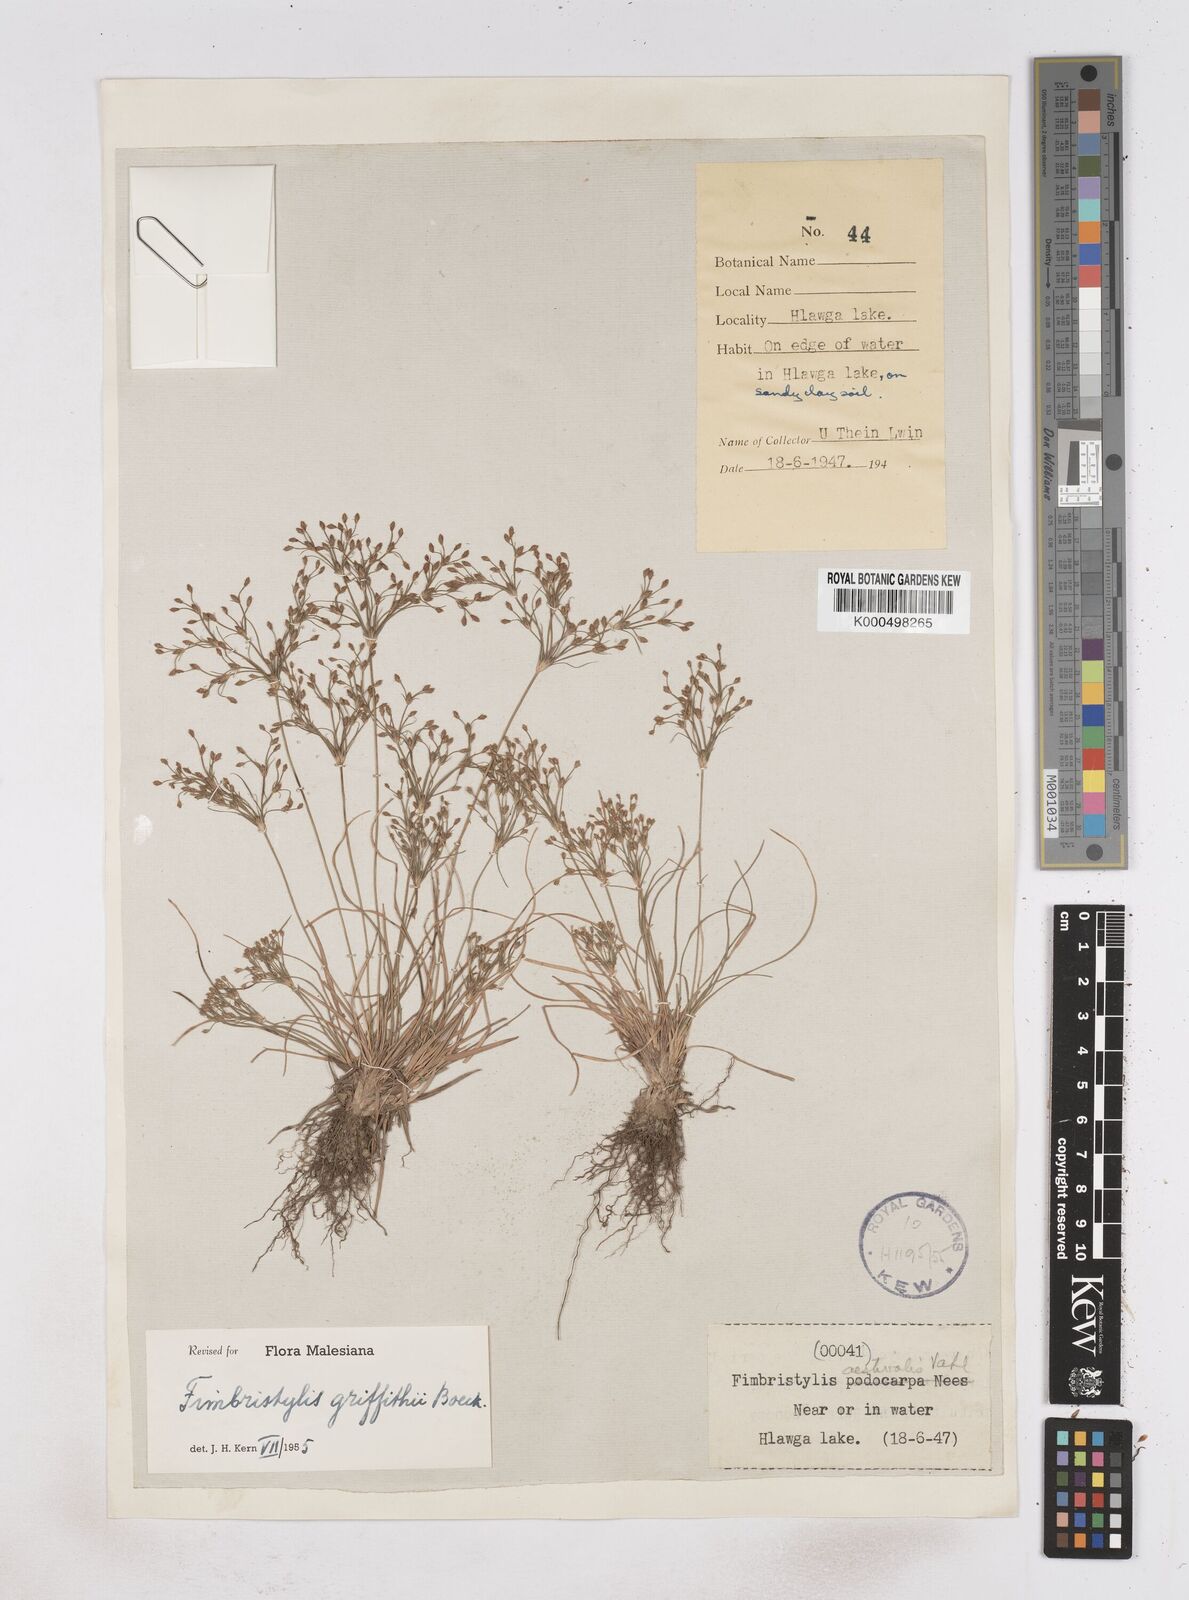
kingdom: Plantae
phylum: Tracheophyta
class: Liliopsida
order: Poales
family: Cyperaceae
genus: Fimbristylis
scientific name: Fimbristylis griffithii
